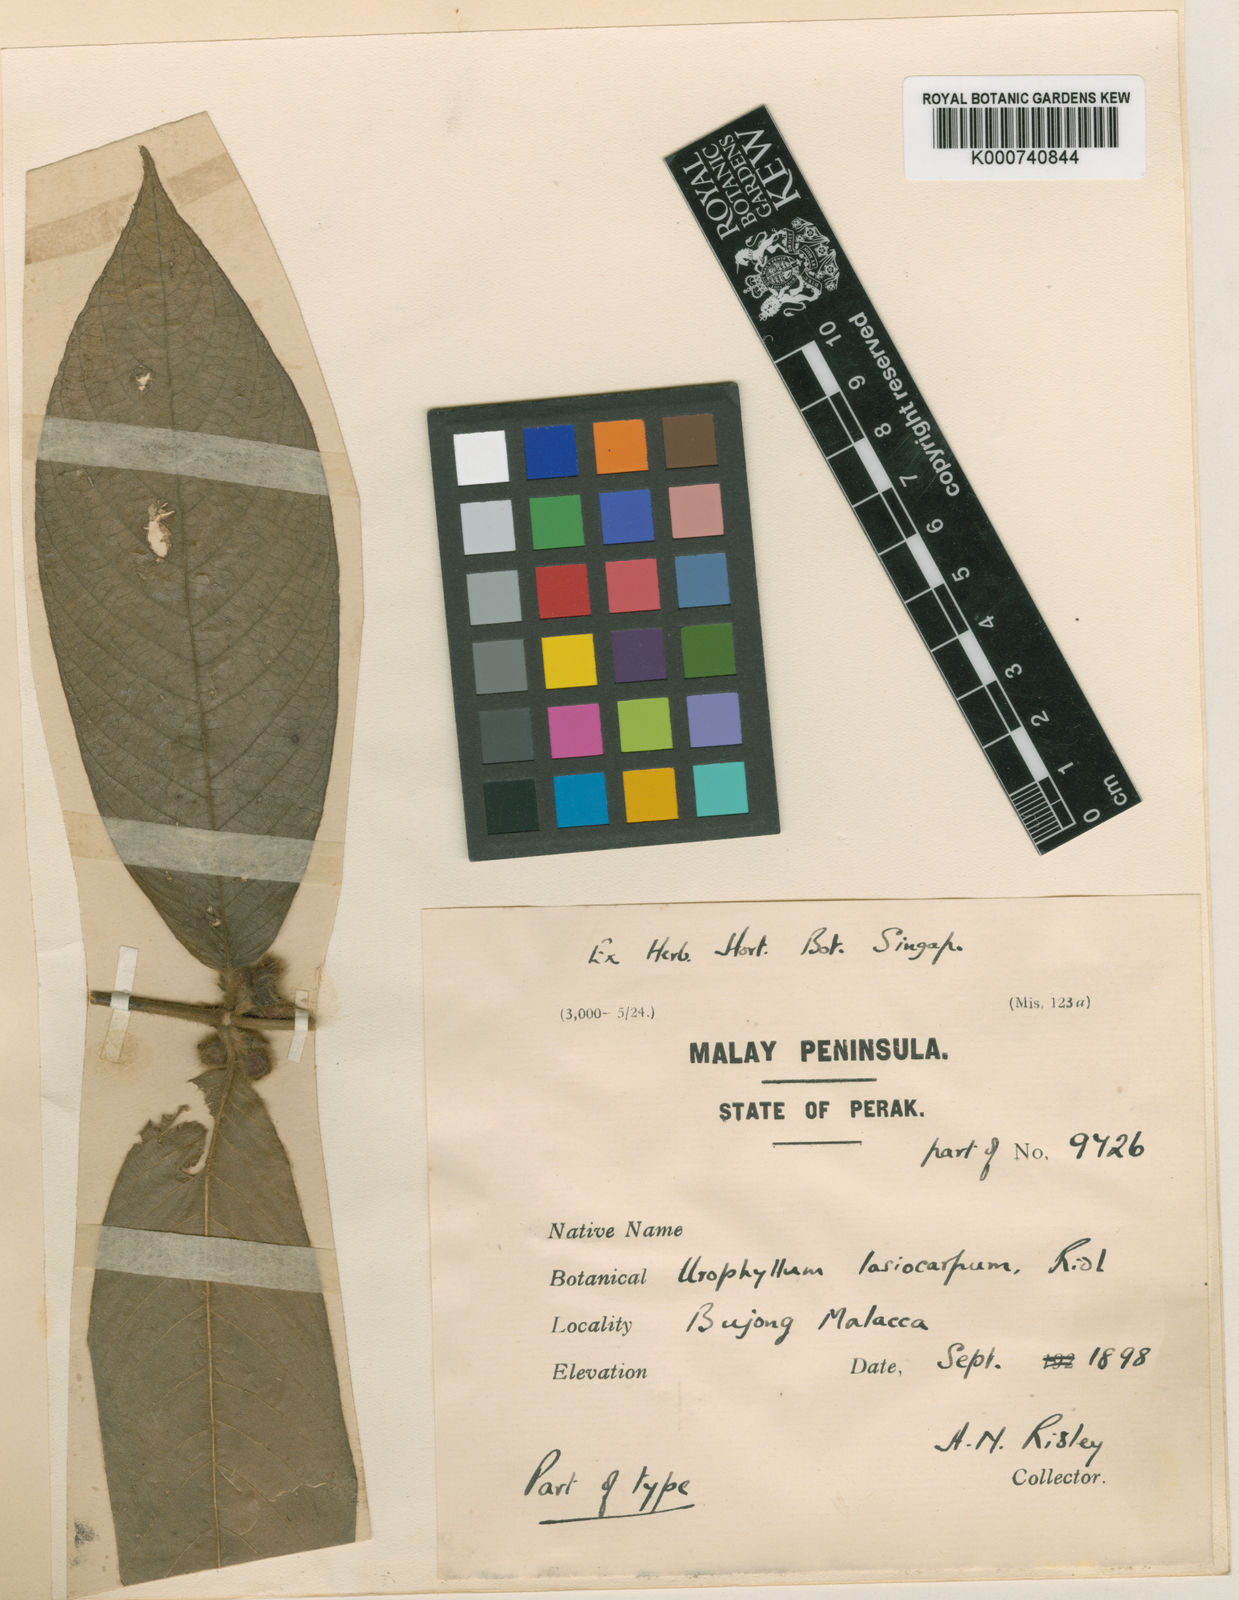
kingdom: Plantae
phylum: Tracheophyta
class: Magnoliopsida
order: Gentianales
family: Rubiaceae
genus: Urophyllum
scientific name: Urophyllum lasiocarpum
